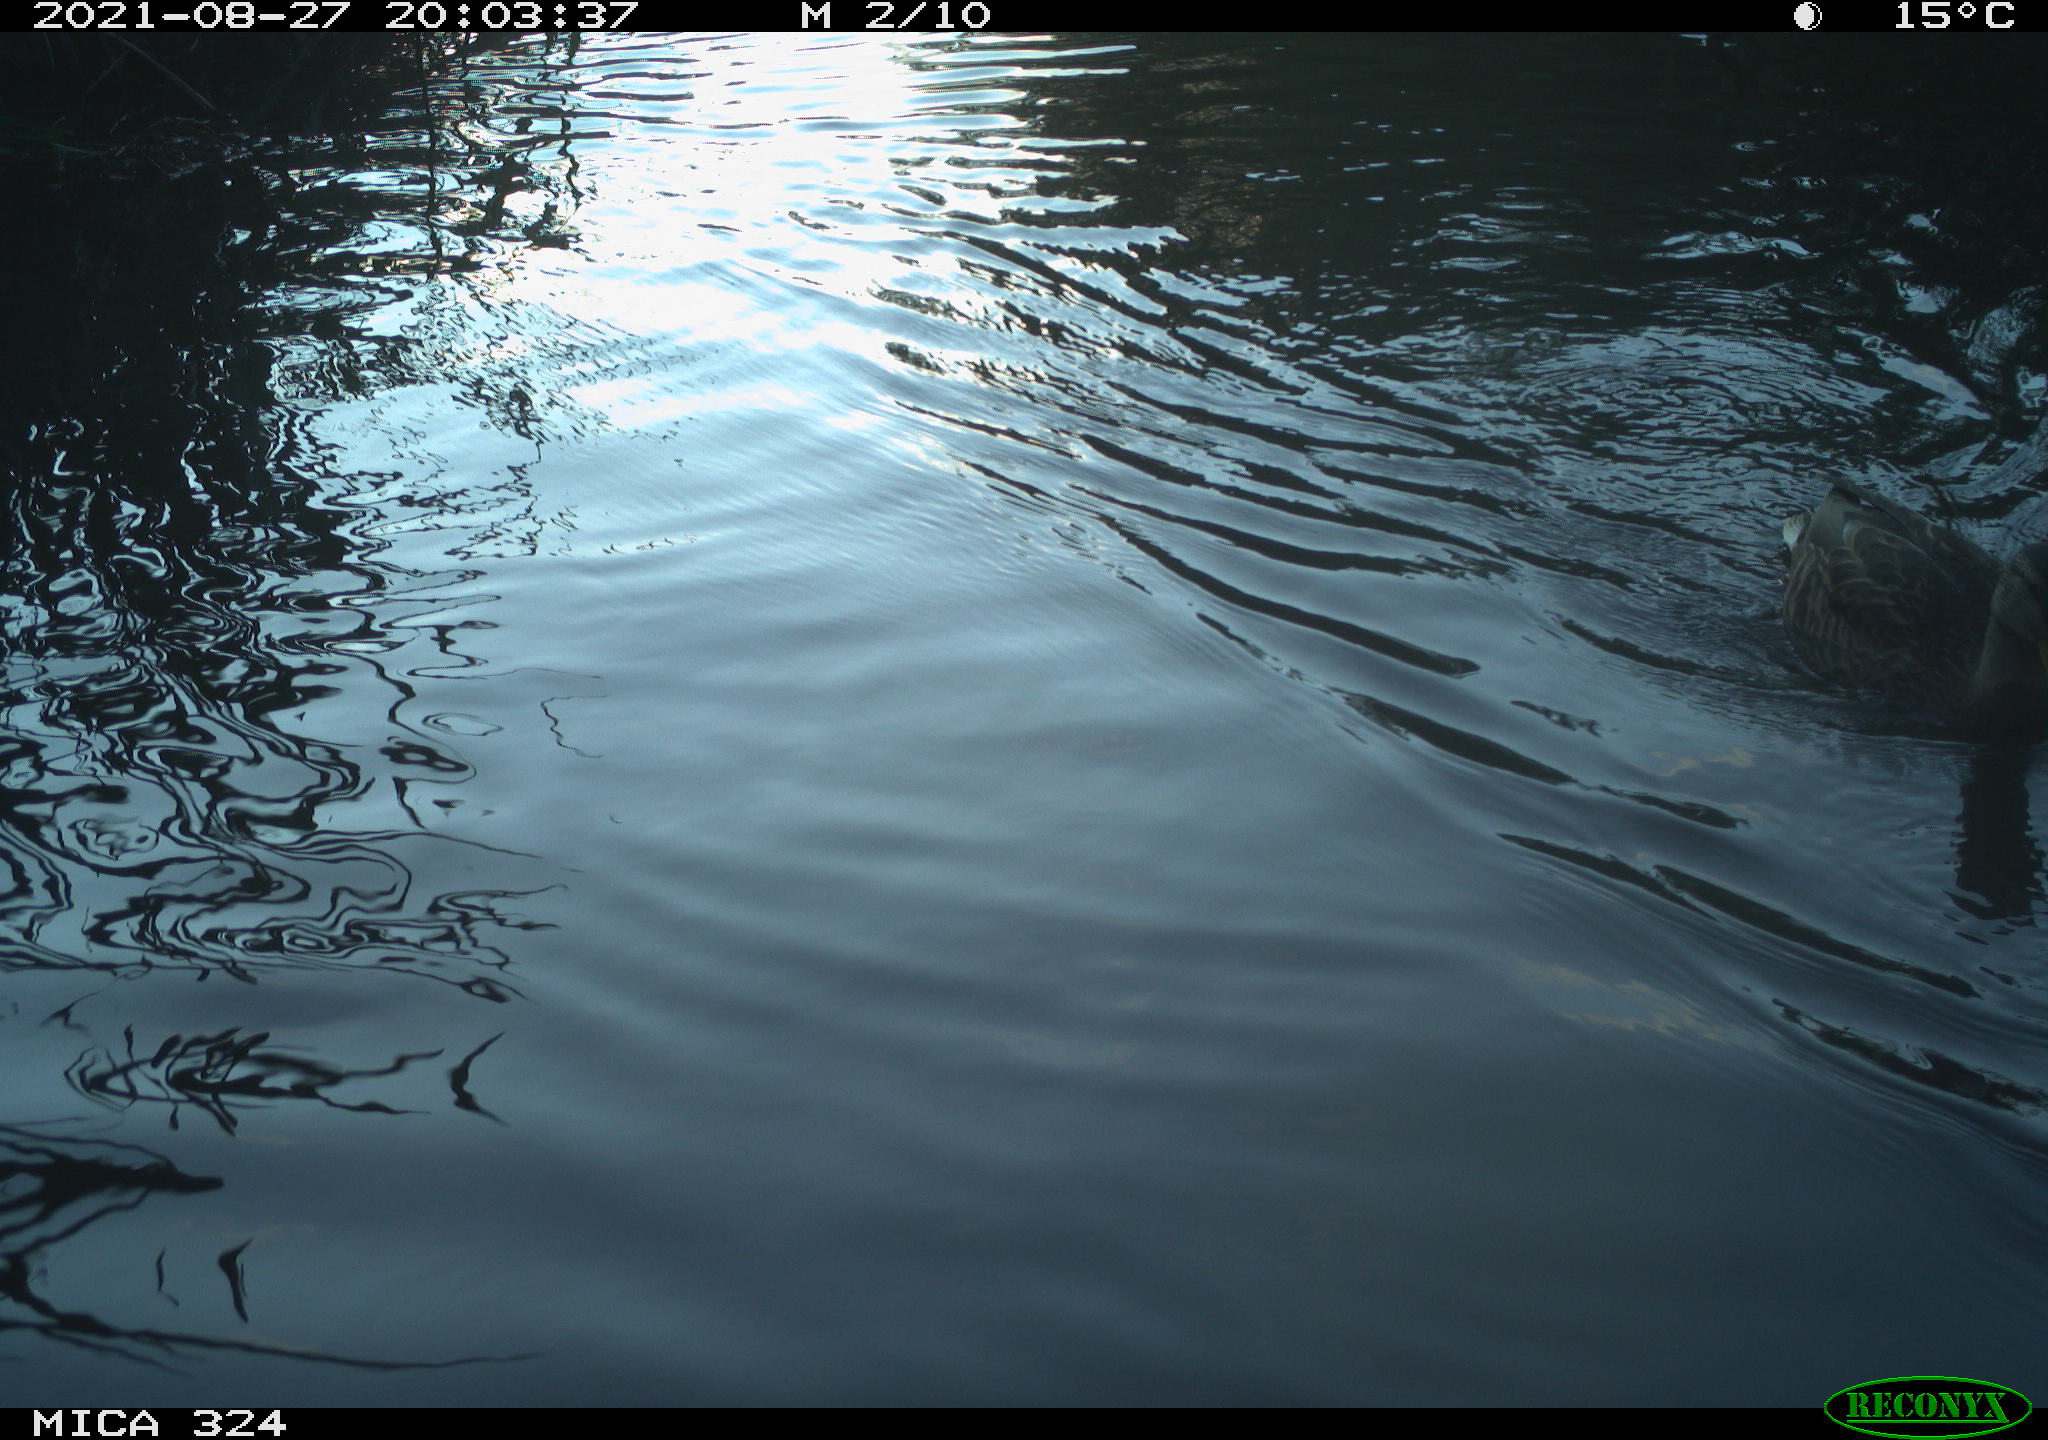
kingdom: Animalia
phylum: Chordata
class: Aves
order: Anseriformes
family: Anatidae
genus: Anas
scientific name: Anas platyrhynchos
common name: Mallard
